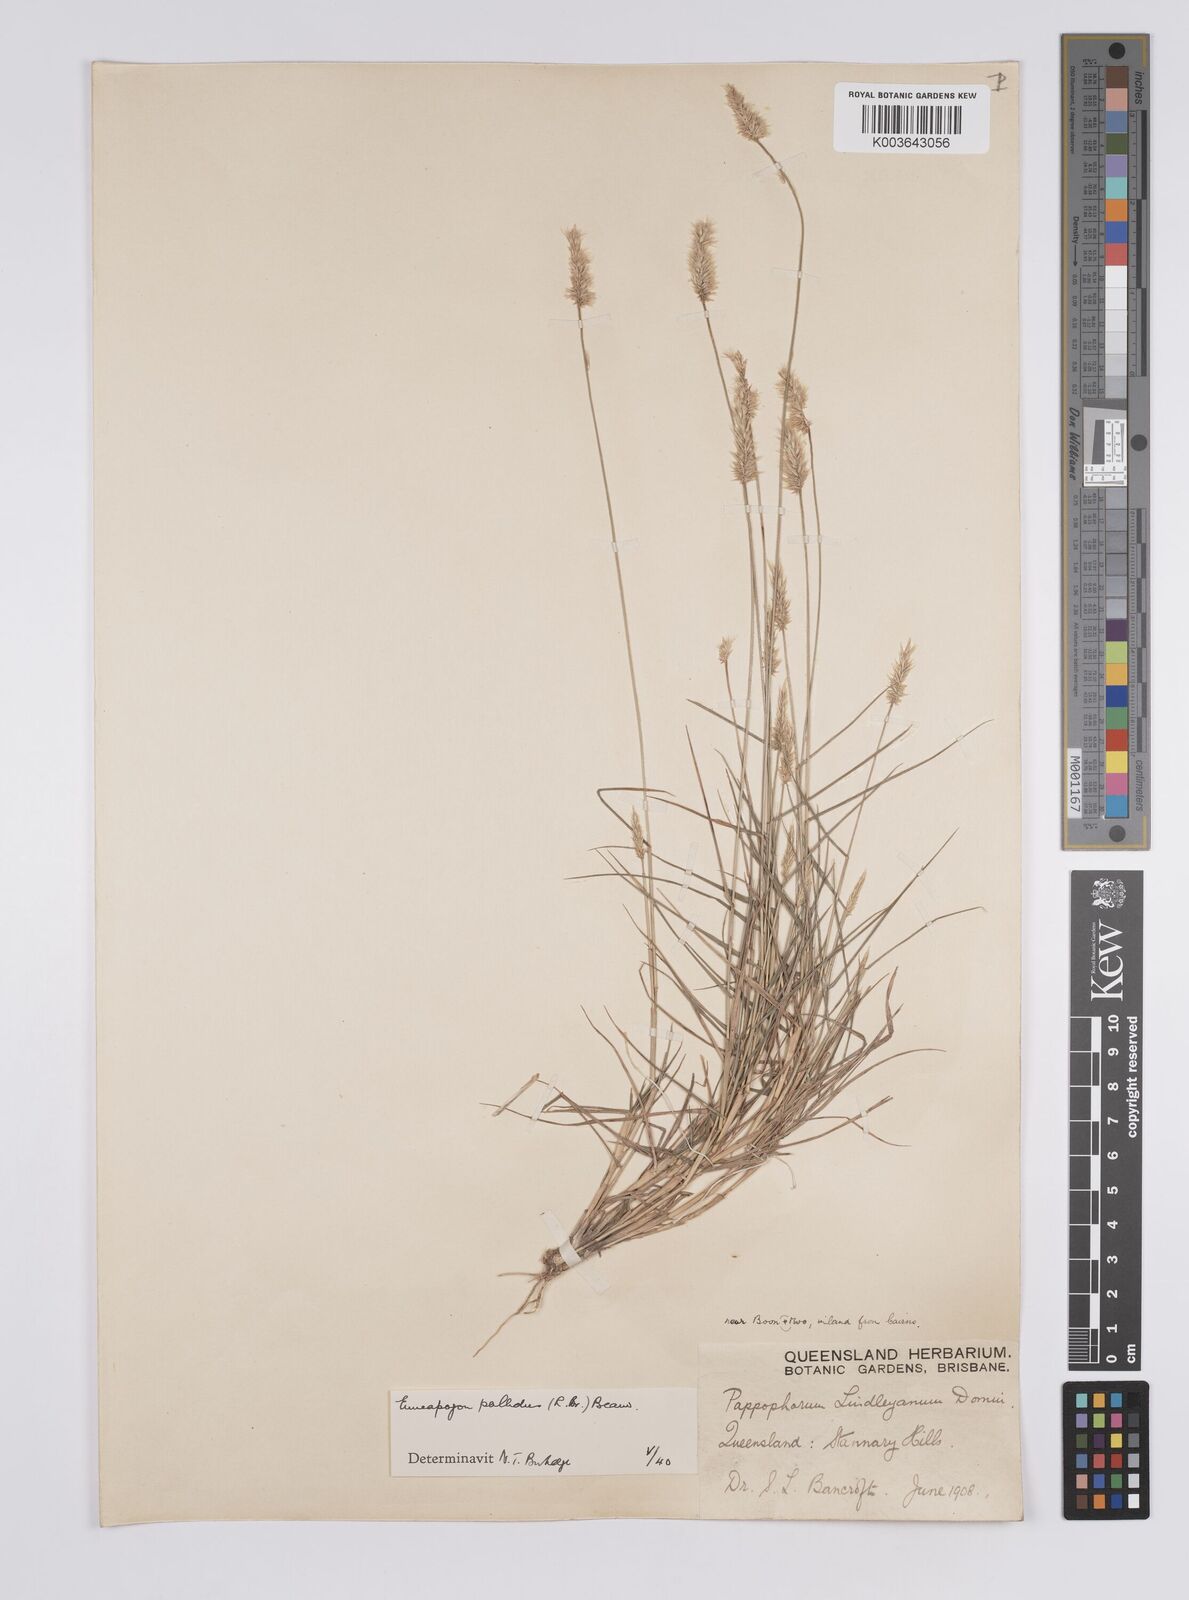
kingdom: Plantae
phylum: Tracheophyta
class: Liliopsida
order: Poales
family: Poaceae
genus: Enneapogon
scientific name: Enneapogon pallidus
